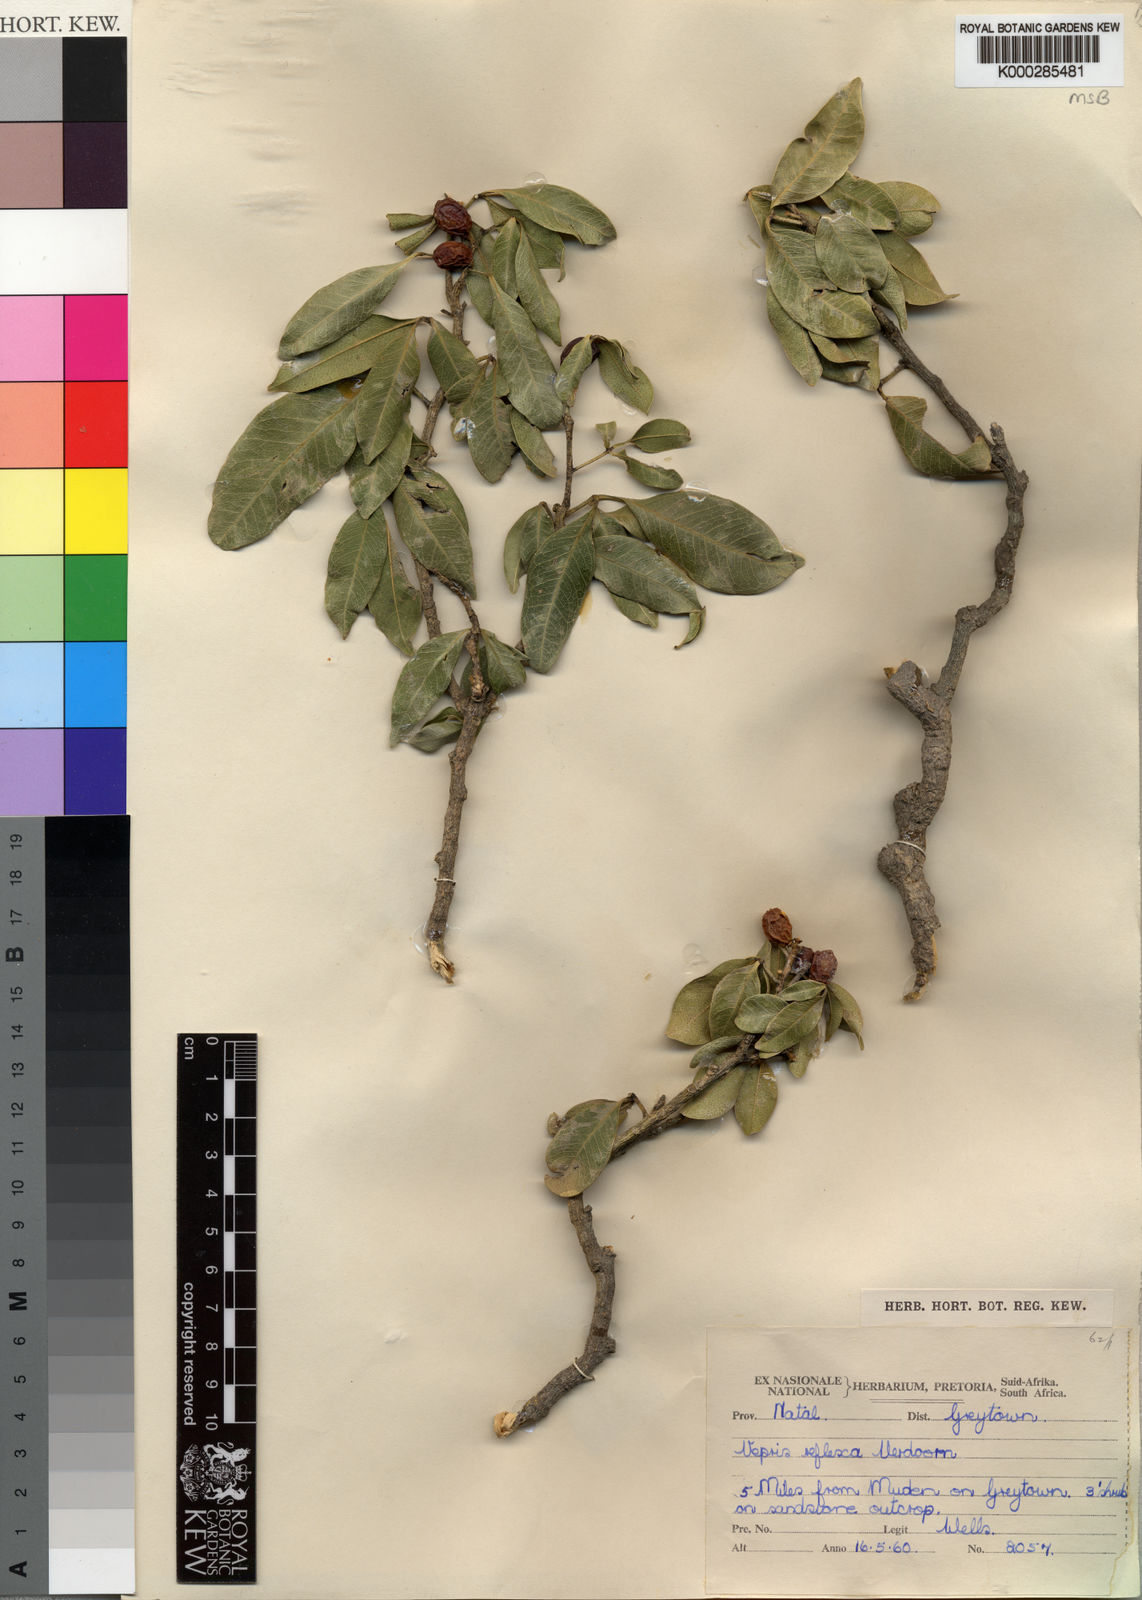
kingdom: Plantae
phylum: Tracheophyta
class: Magnoliopsida
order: Sapindales
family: Rutaceae
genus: Vepris
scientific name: Vepris reflexa
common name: Rock white ironwood
